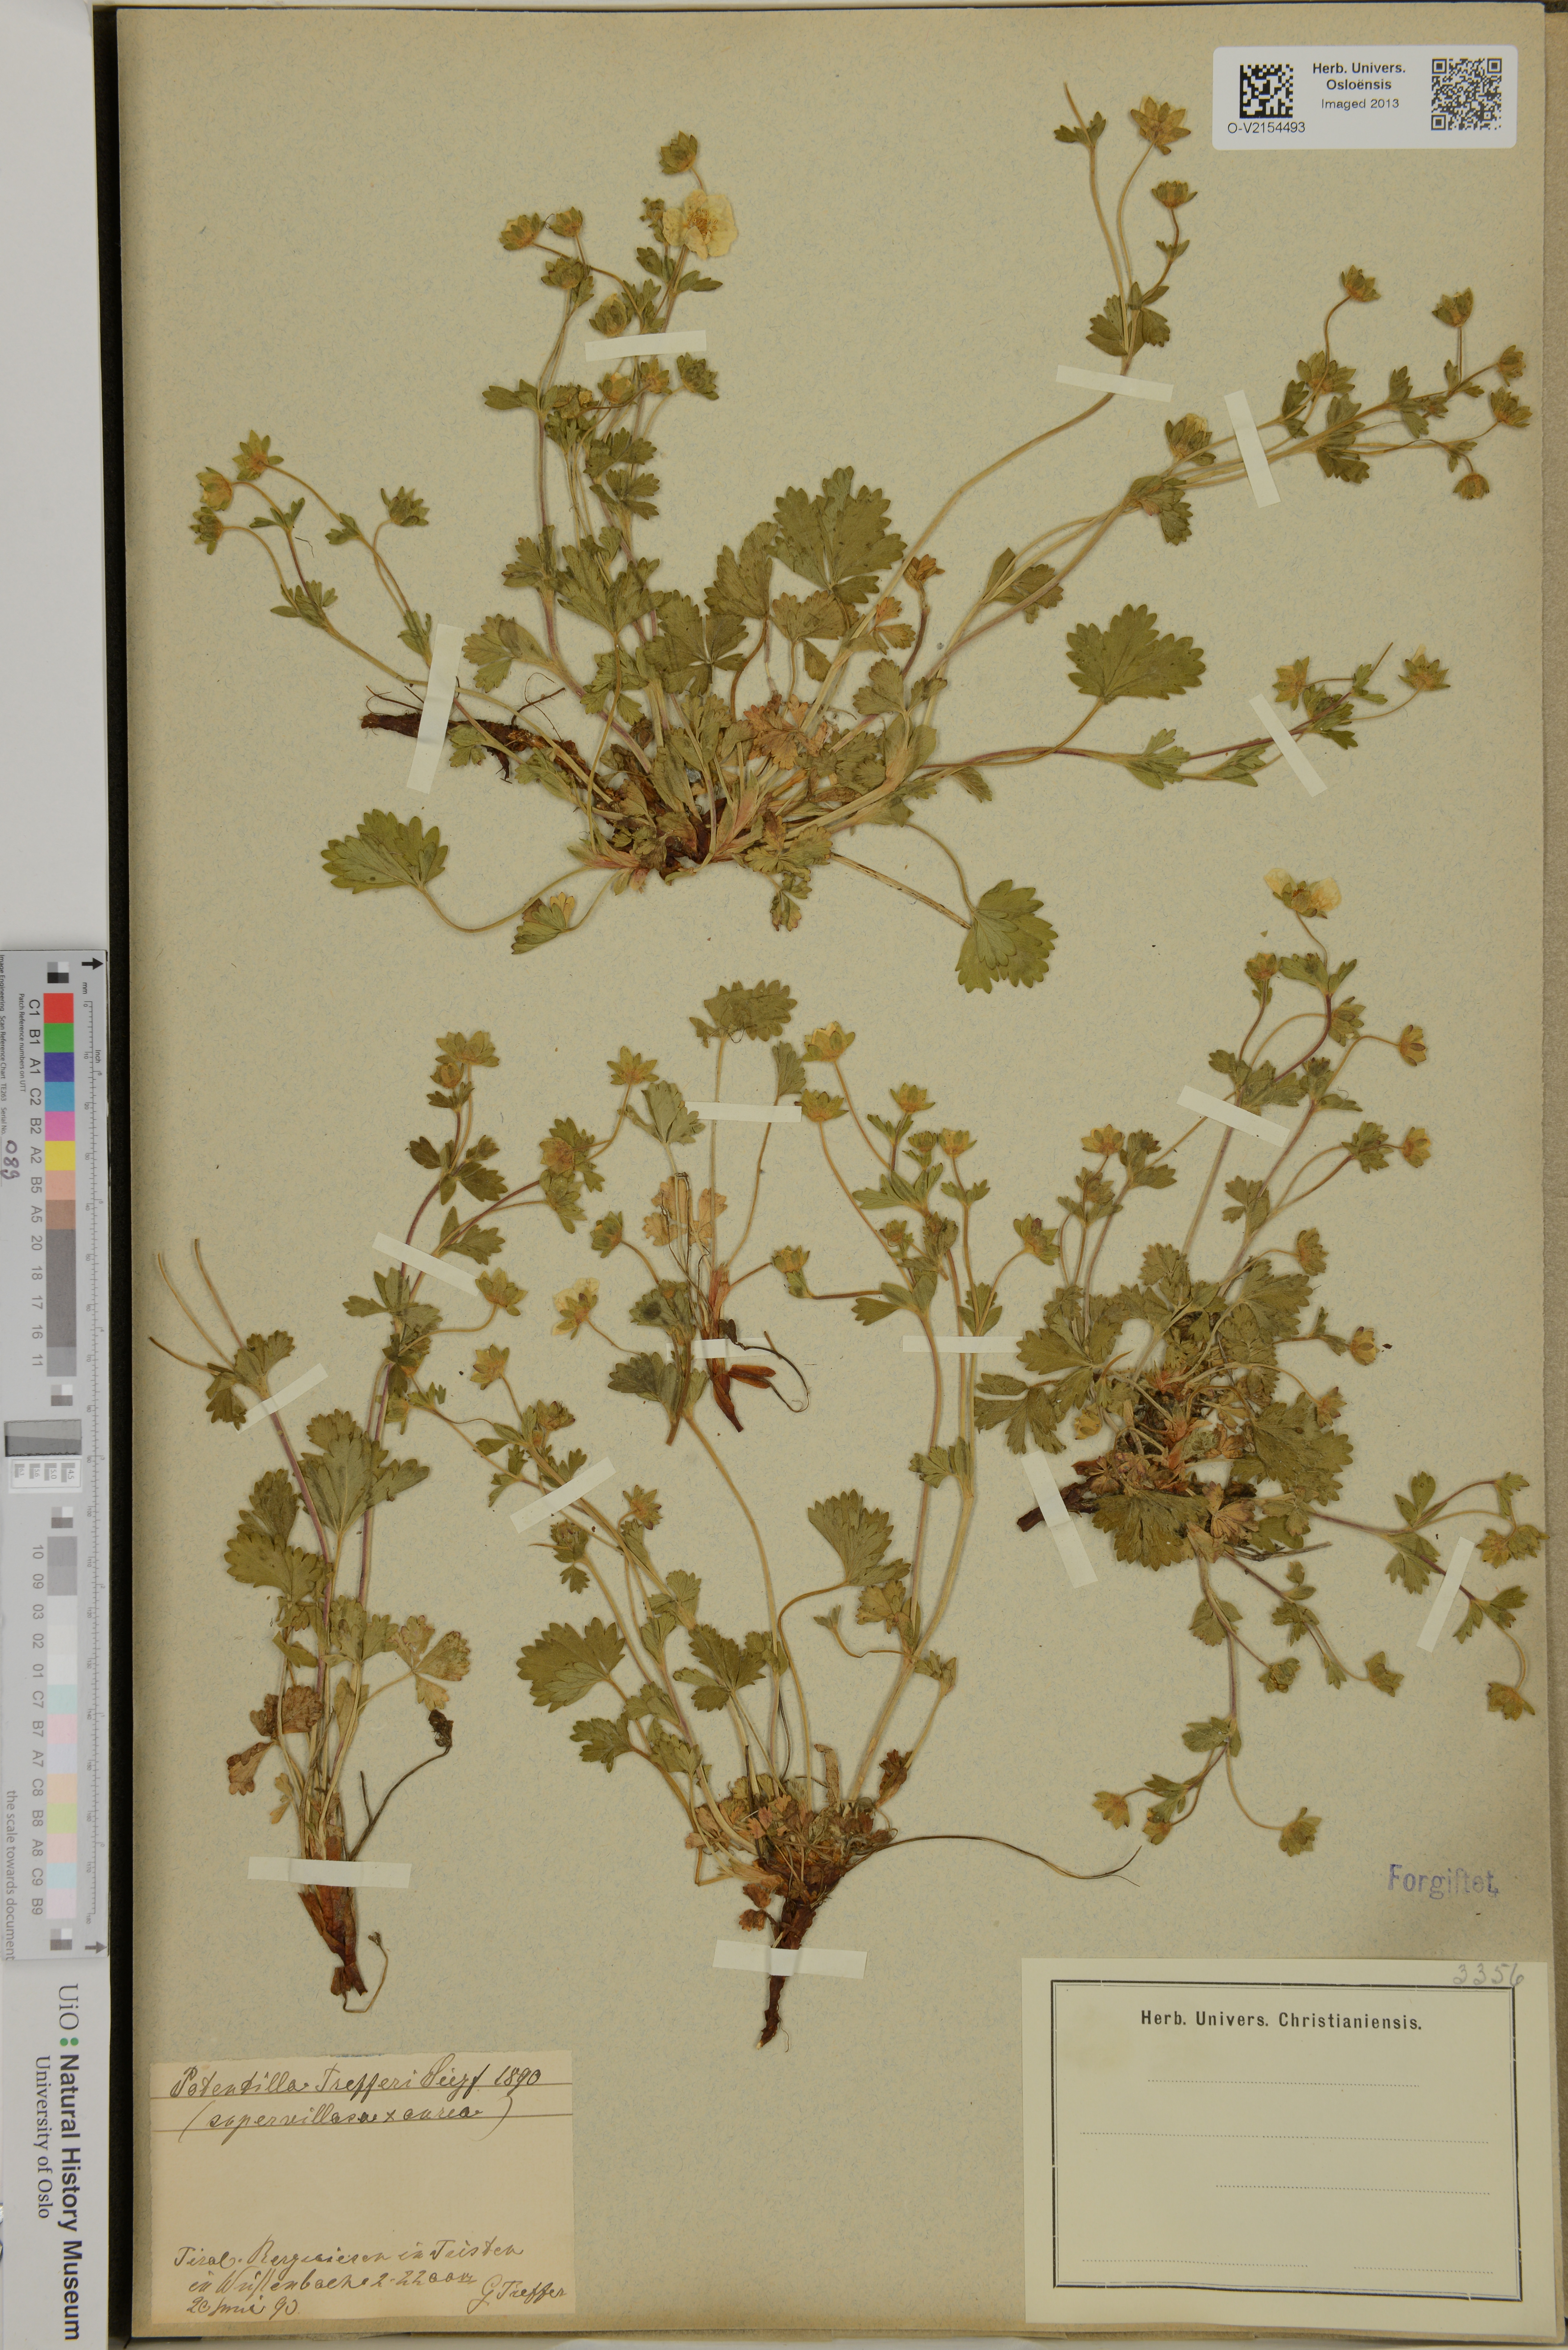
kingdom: Plantae
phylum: Tracheophyta
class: Magnoliopsida
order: Rosales
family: Rosaceae
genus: Potentilla
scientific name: Potentilla trefferi
